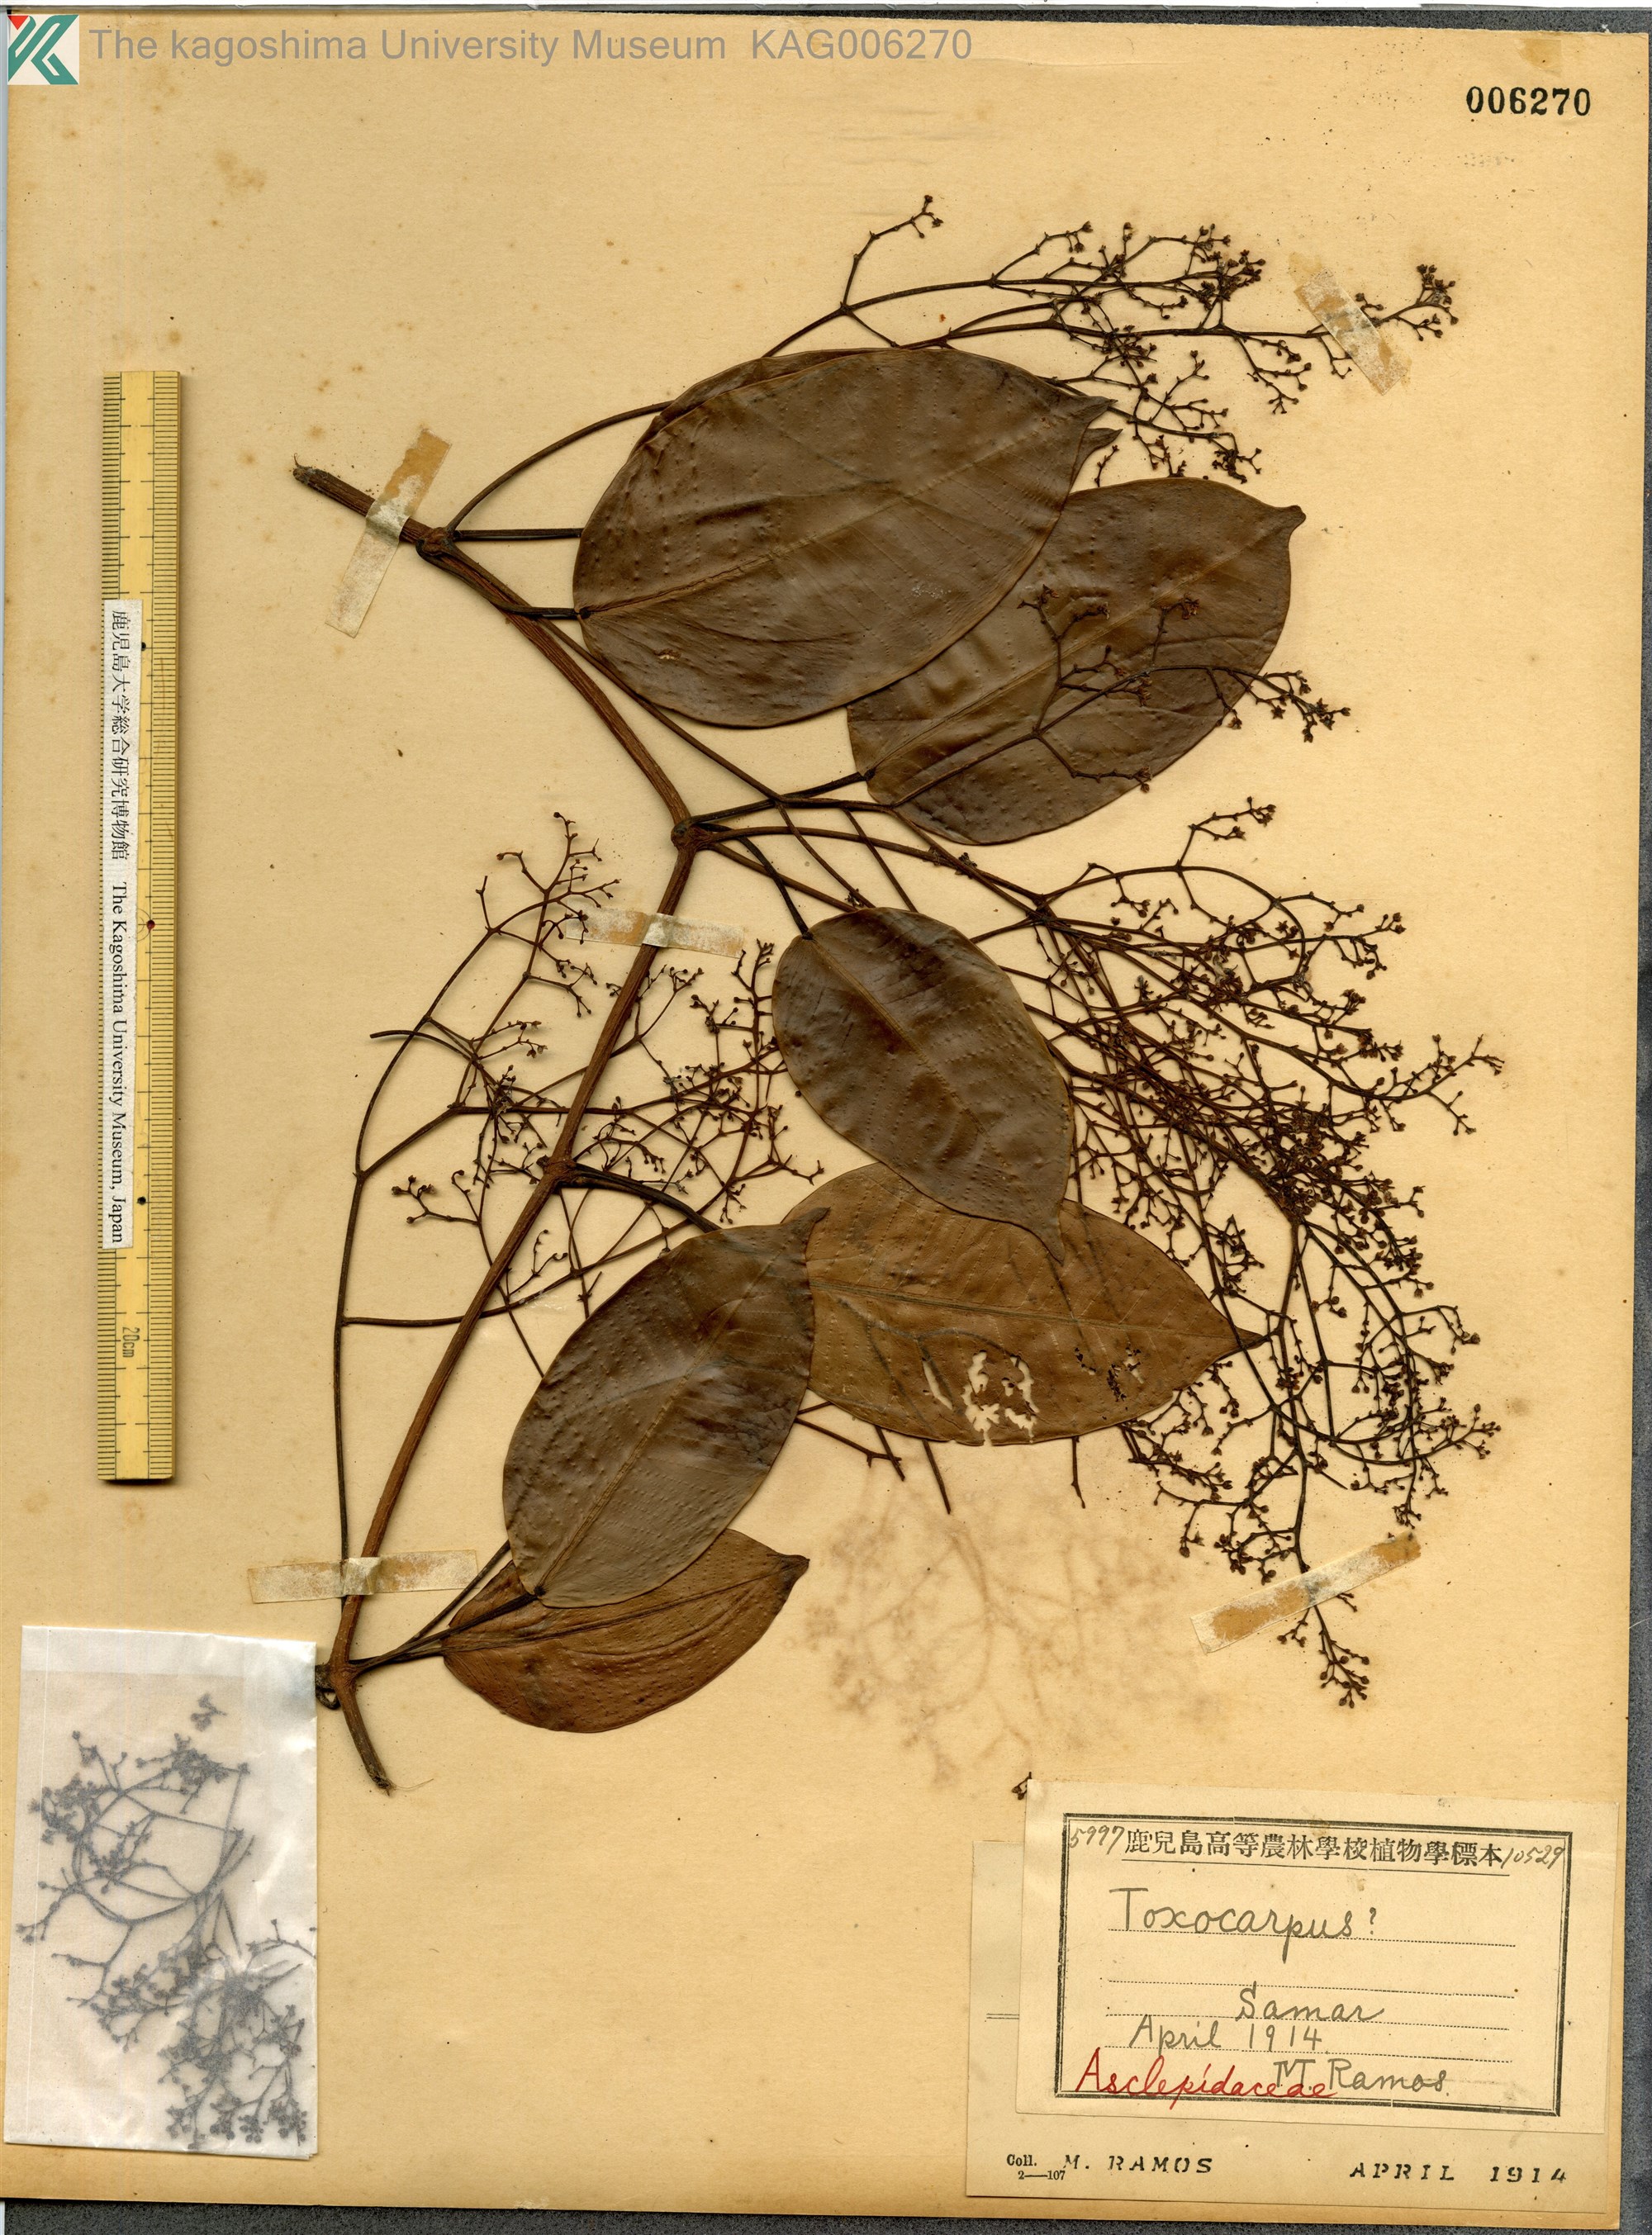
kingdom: Plantae
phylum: Tracheophyta
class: Magnoliopsida
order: Gentianales
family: Apocynaceae
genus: Toxocarpus
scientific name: Toxocarpus
